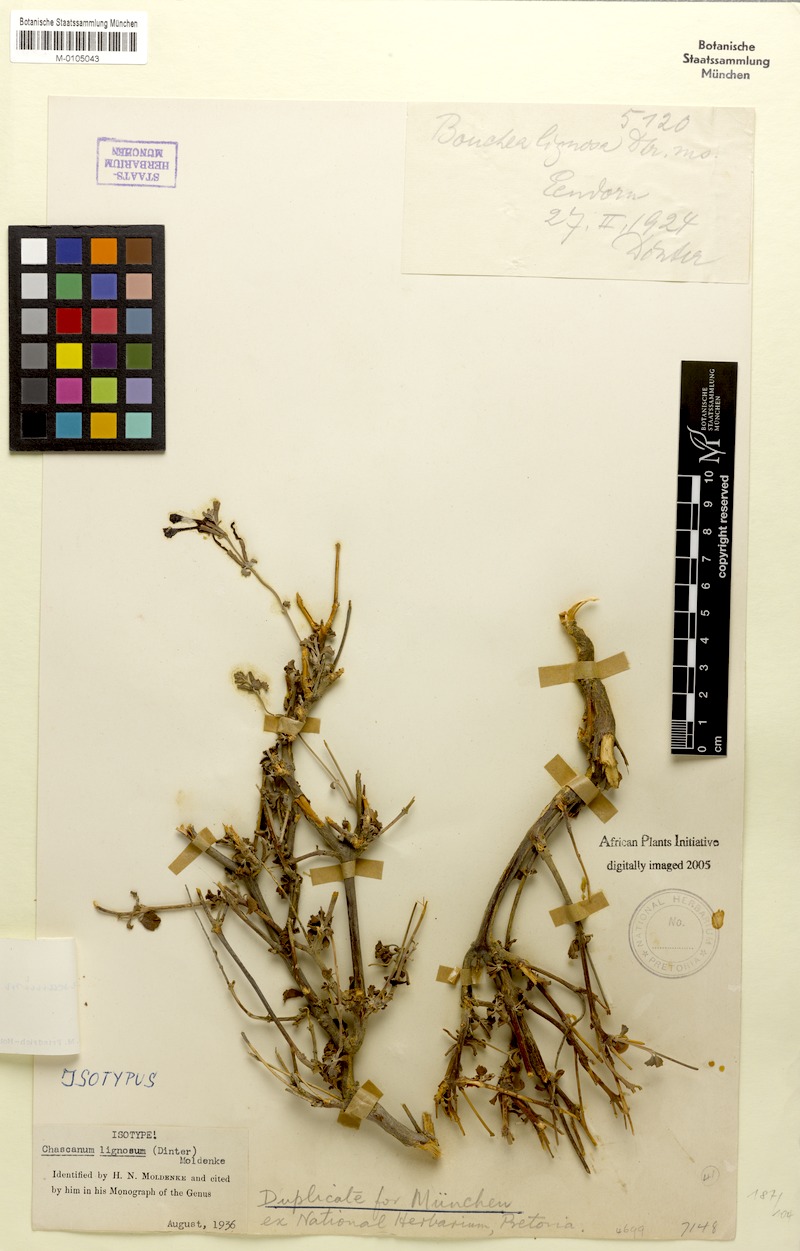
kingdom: Plantae
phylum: Tracheophyta
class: Magnoliopsida
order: Lamiales
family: Verbenaceae
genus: Chascanum
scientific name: Chascanum pumilum
